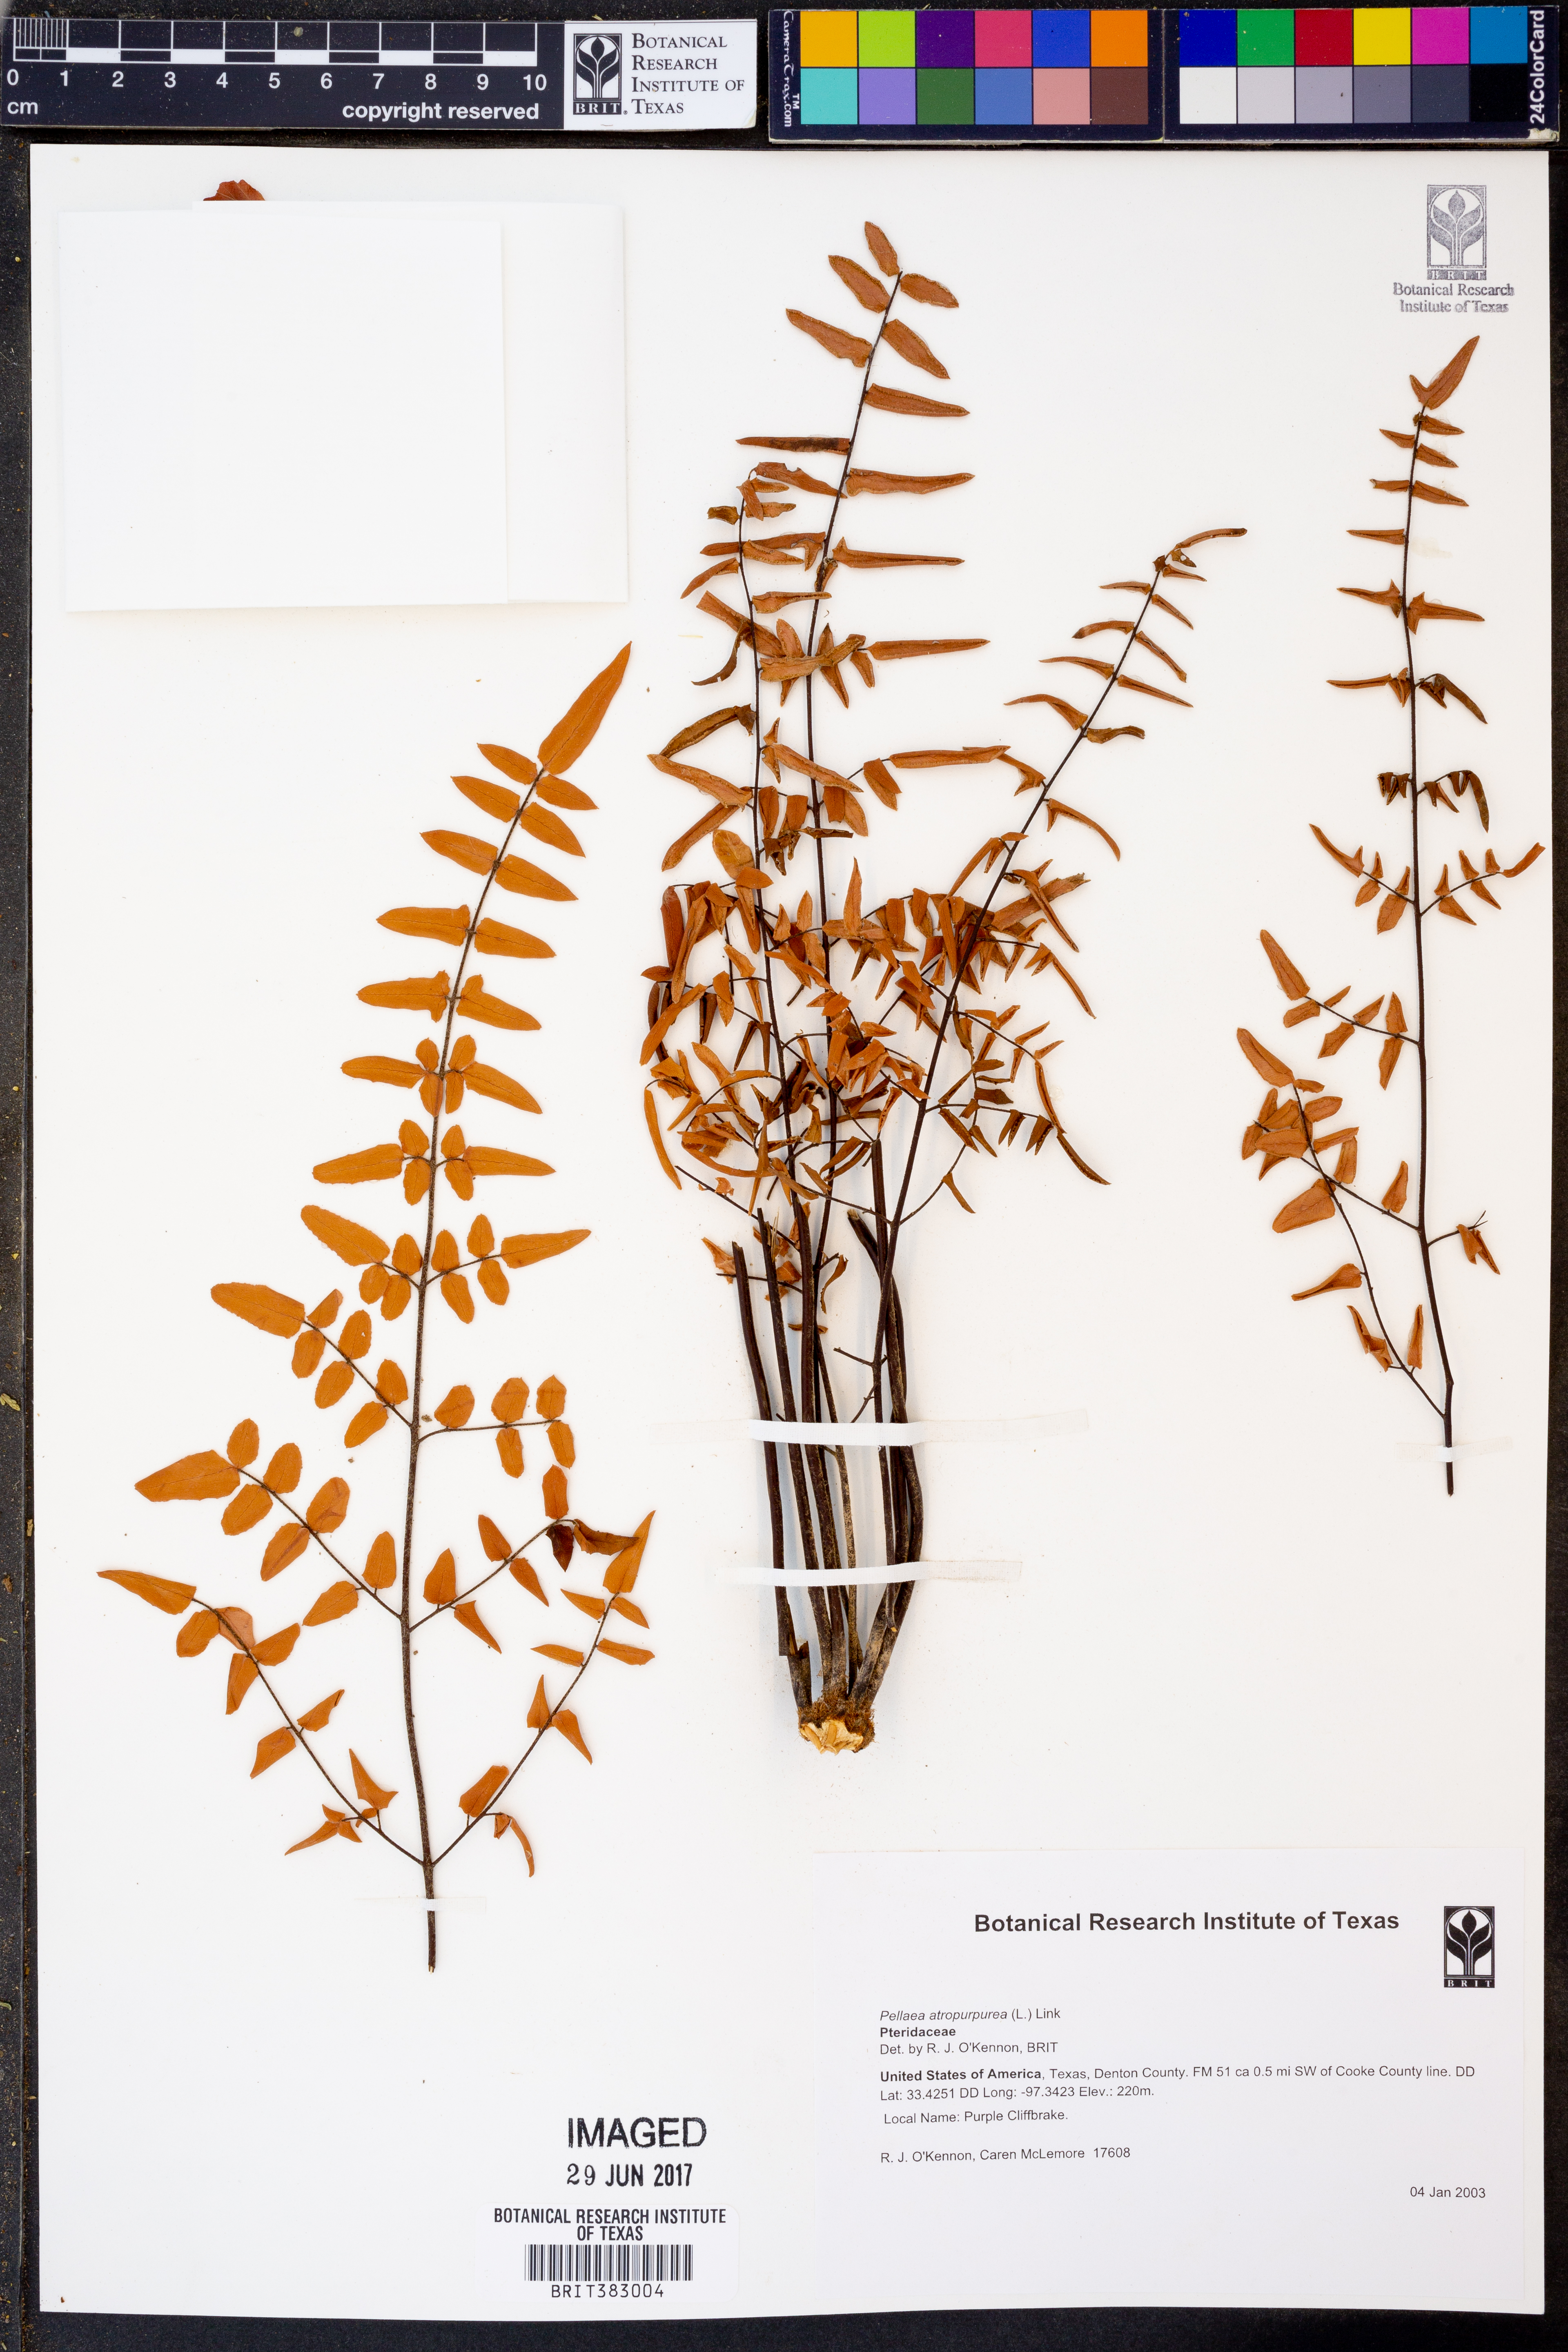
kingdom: Plantae
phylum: Tracheophyta
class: Polypodiopsida
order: Polypodiales
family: Pteridaceae
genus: Pellaea
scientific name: Pellaea atropurpurea
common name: Hairy cliffbrake
